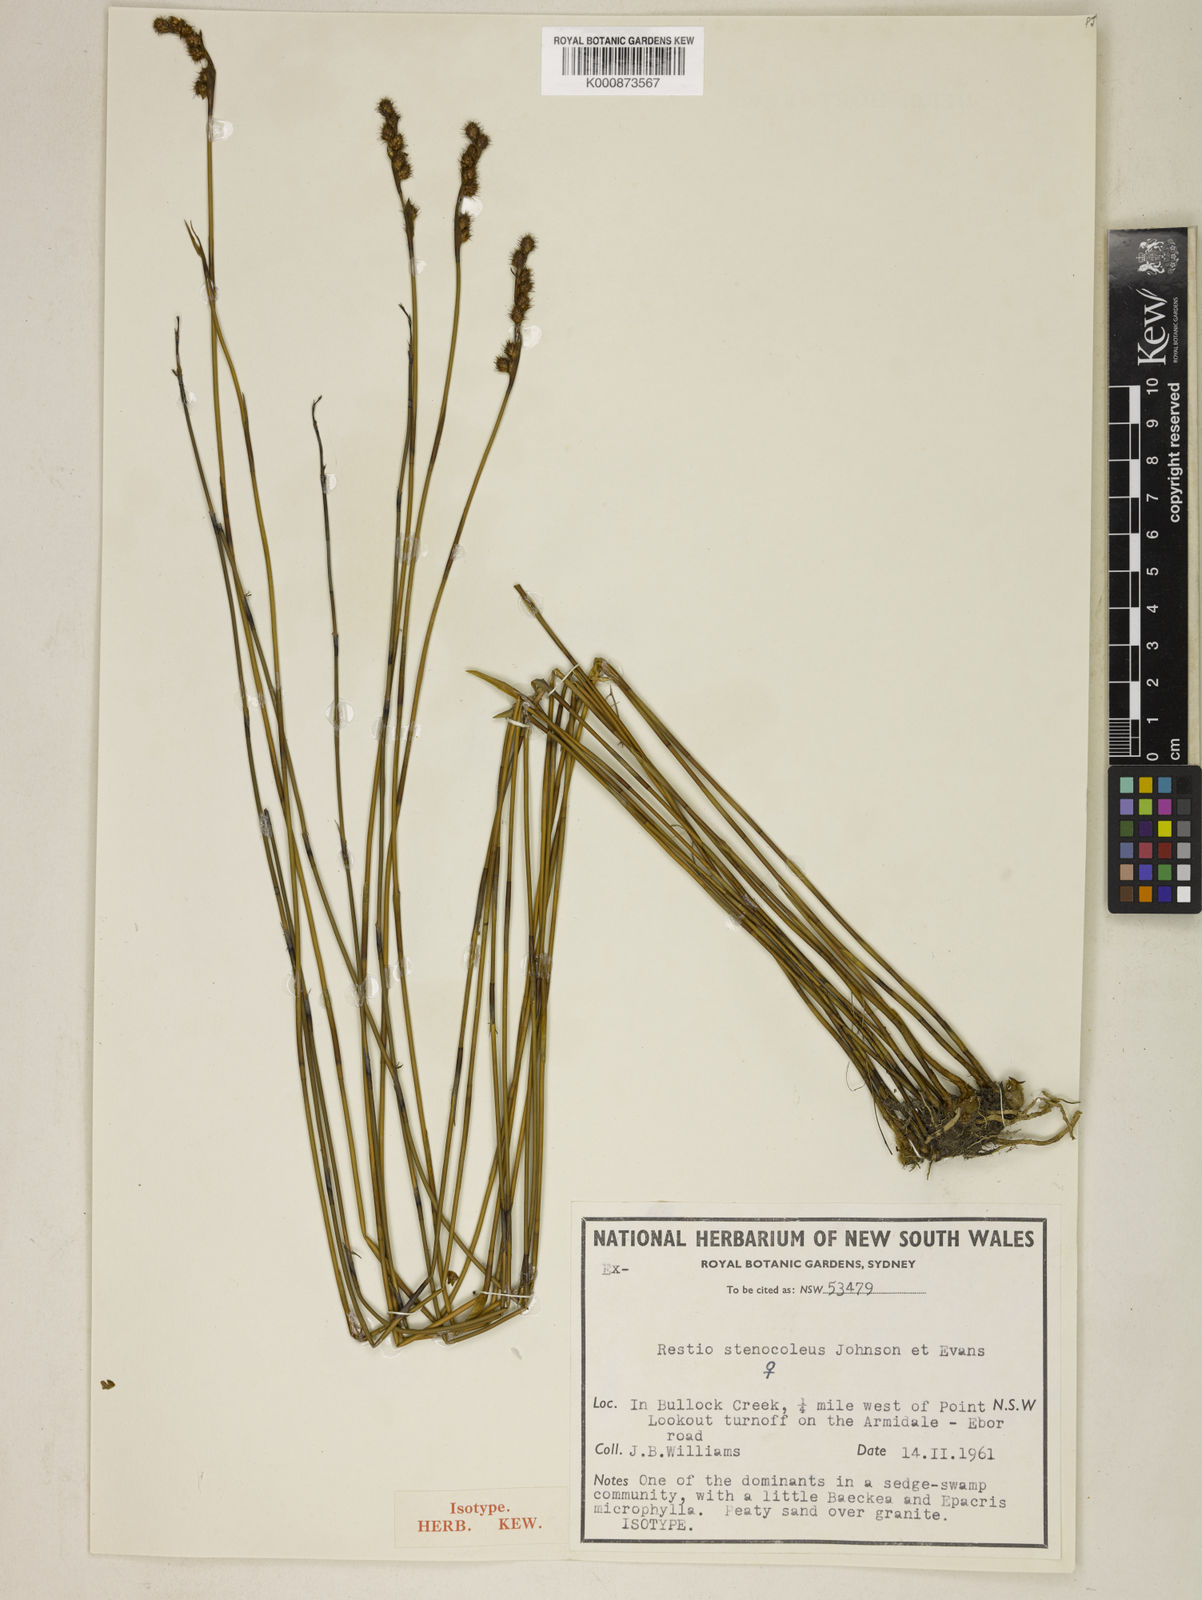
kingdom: Plantae
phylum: Tracheophyta
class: Liliopsida
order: Poales
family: Restionaceae
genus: Baloskion
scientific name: Baloskion stenocoleum
